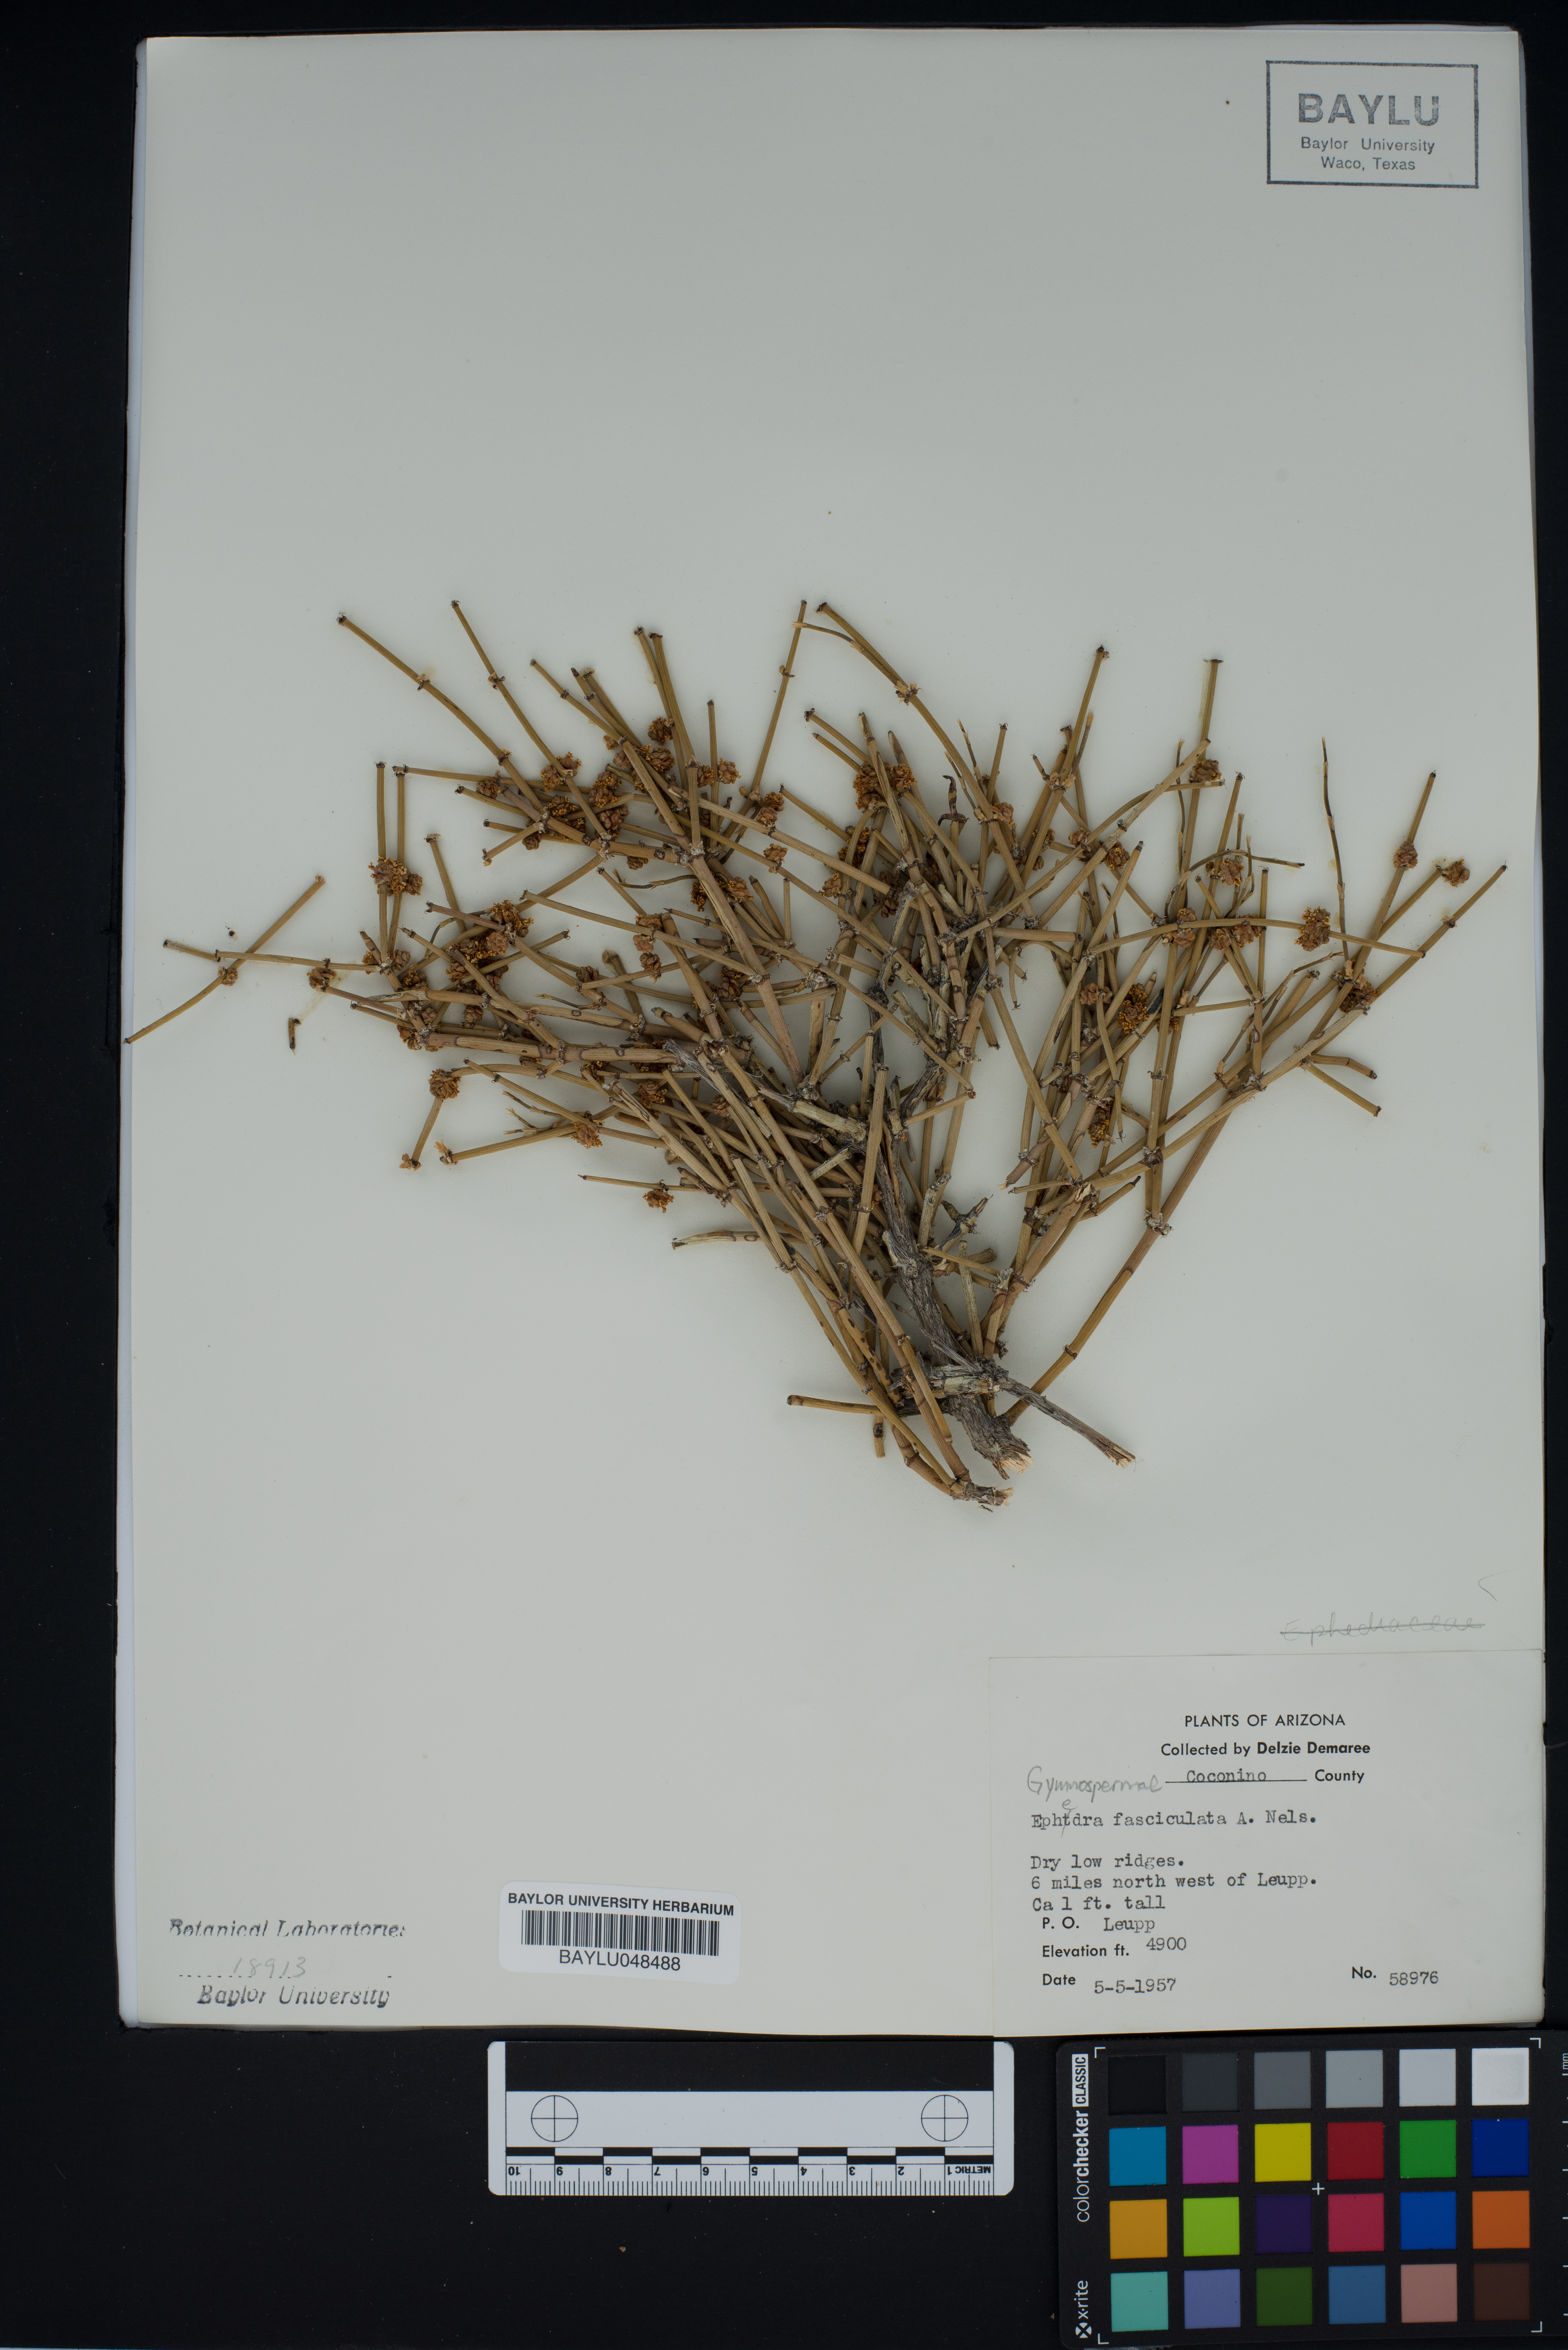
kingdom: Plantae
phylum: Tracheophyta
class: Gnetopsida
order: Ephedrales
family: Ephedraceae
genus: Ephedra
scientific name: Ephedra fasciculata
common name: Arizona joint-fir
